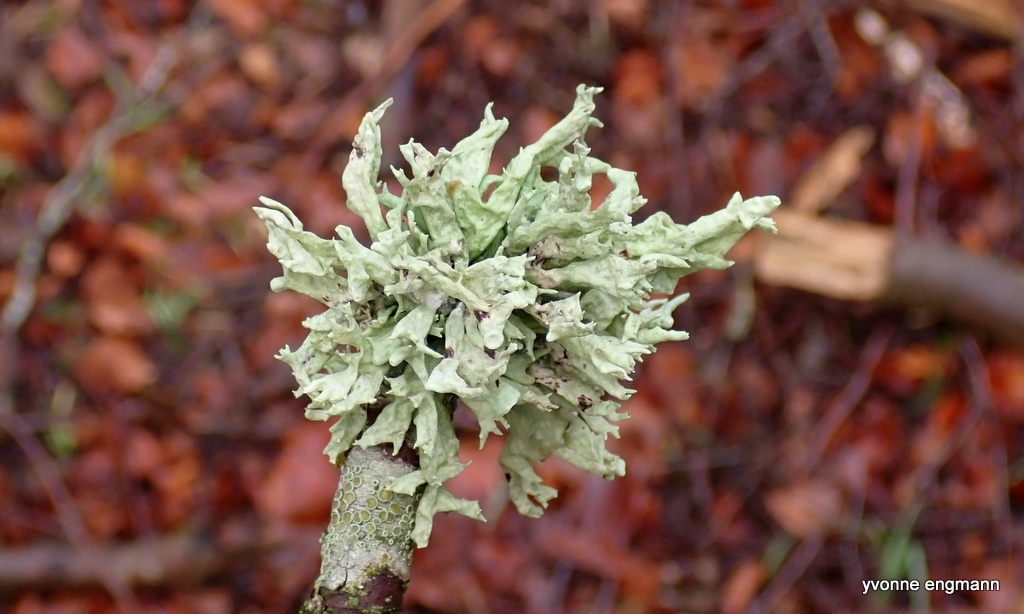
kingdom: Fungi
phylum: Ascomycota
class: Lecanoromycetes
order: Lecanorales
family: Ramalinaceae
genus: Ramalina
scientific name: Ramalina fastigiata
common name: tue-grenlav
